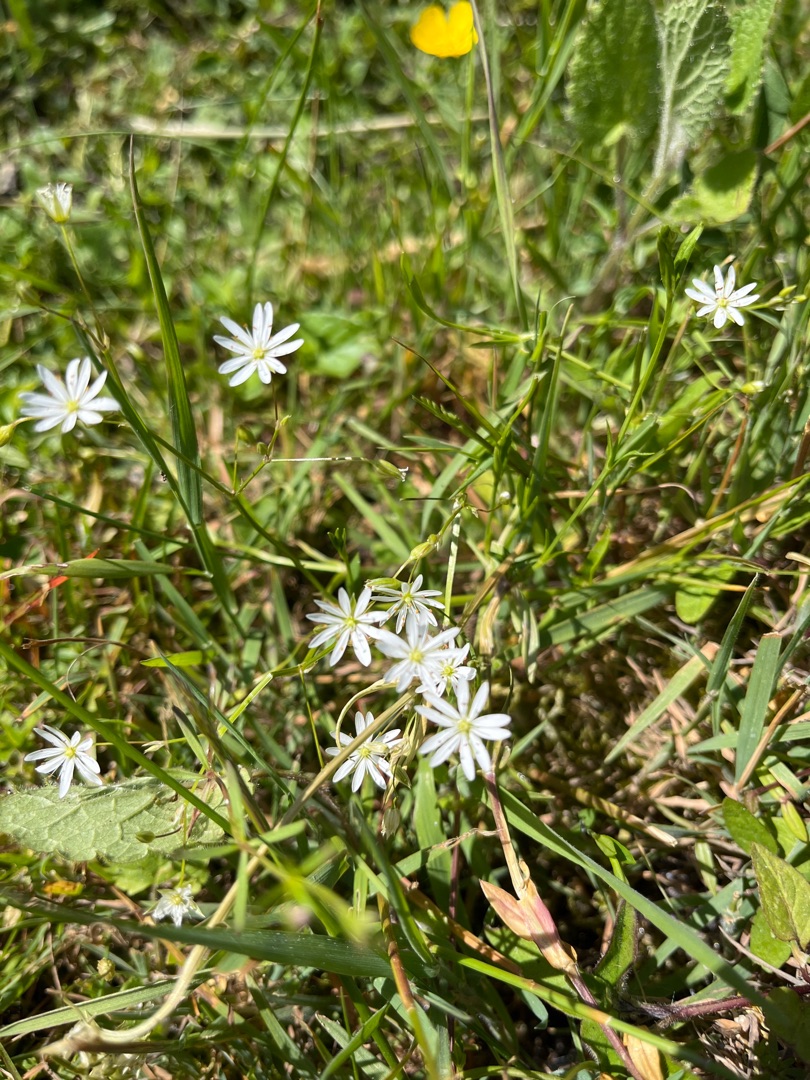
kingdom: Plantae
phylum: Tracheophyta
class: Magnoliopsida
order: Caryophyllales
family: Caryophyllaceae
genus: Stellaria
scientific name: Stellaria graminea
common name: Græsbladet fladstjerne
